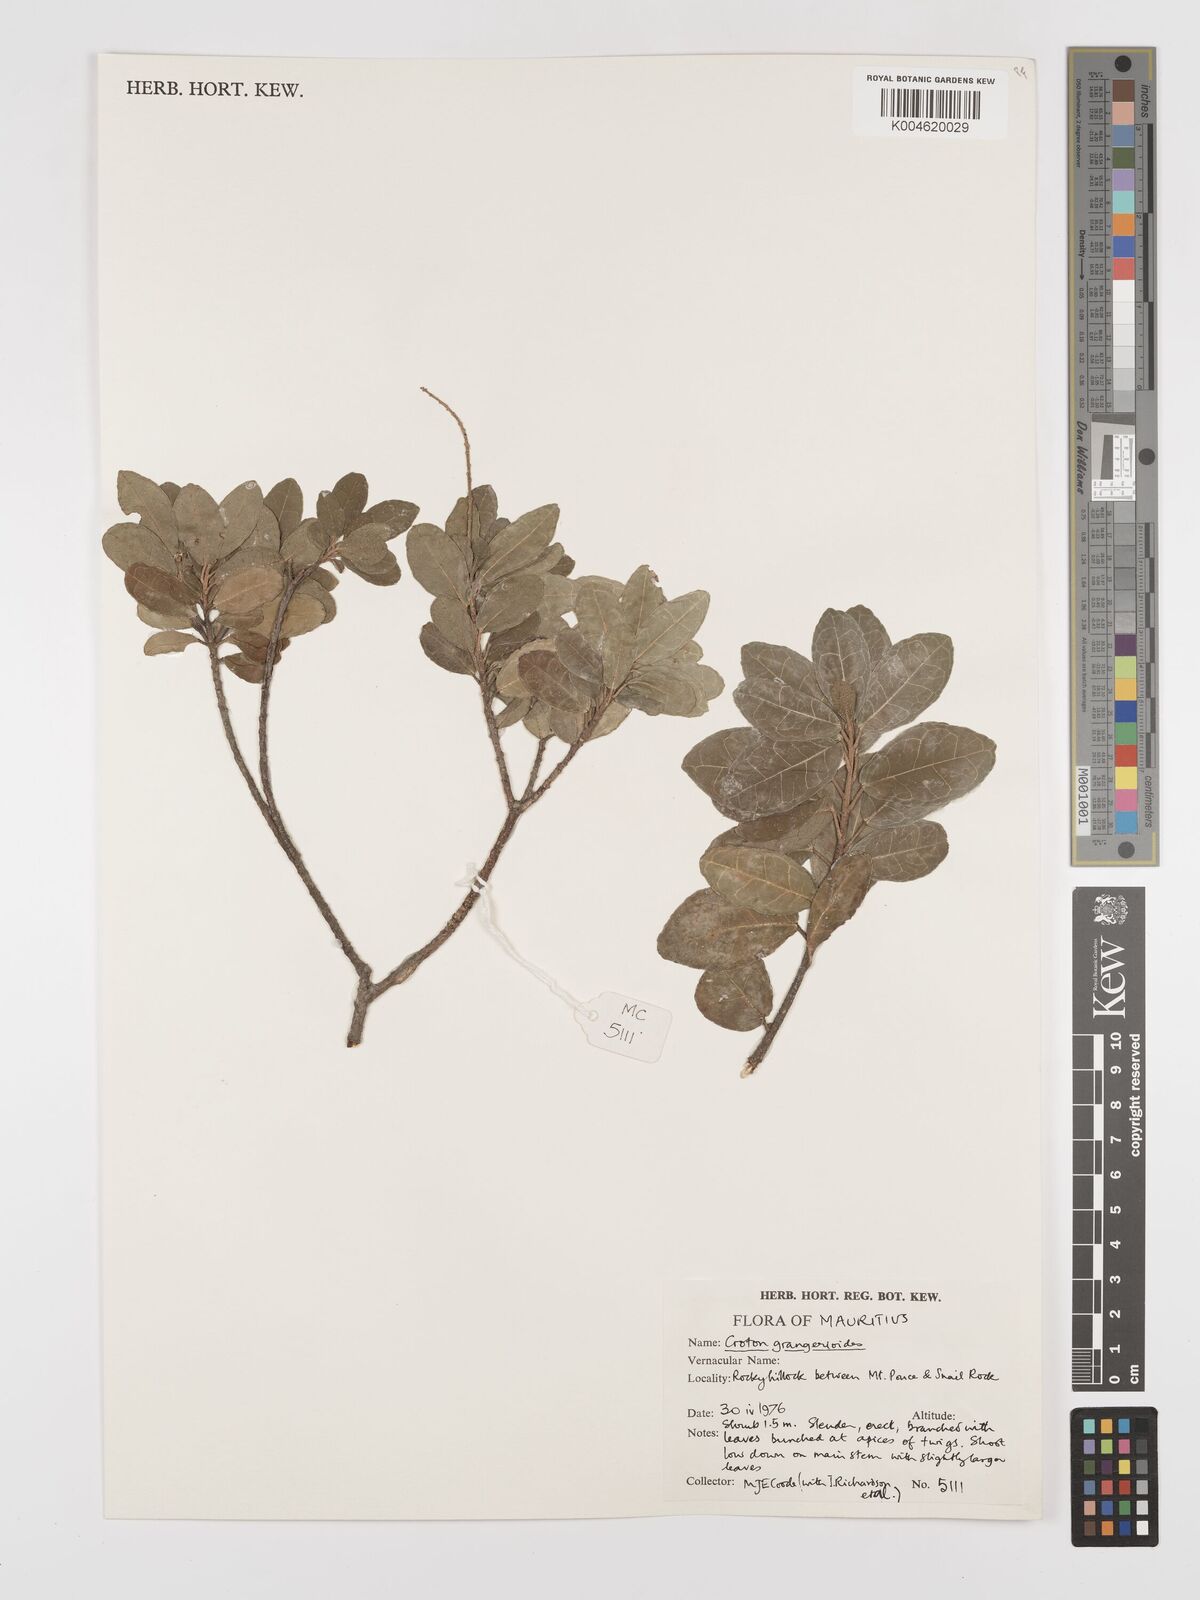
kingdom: Plantae
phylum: Tracheophyta
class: Magnoliopsida
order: Malpighiales
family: Euphorbiaceae
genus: Croton
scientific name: Croton grangerioides
